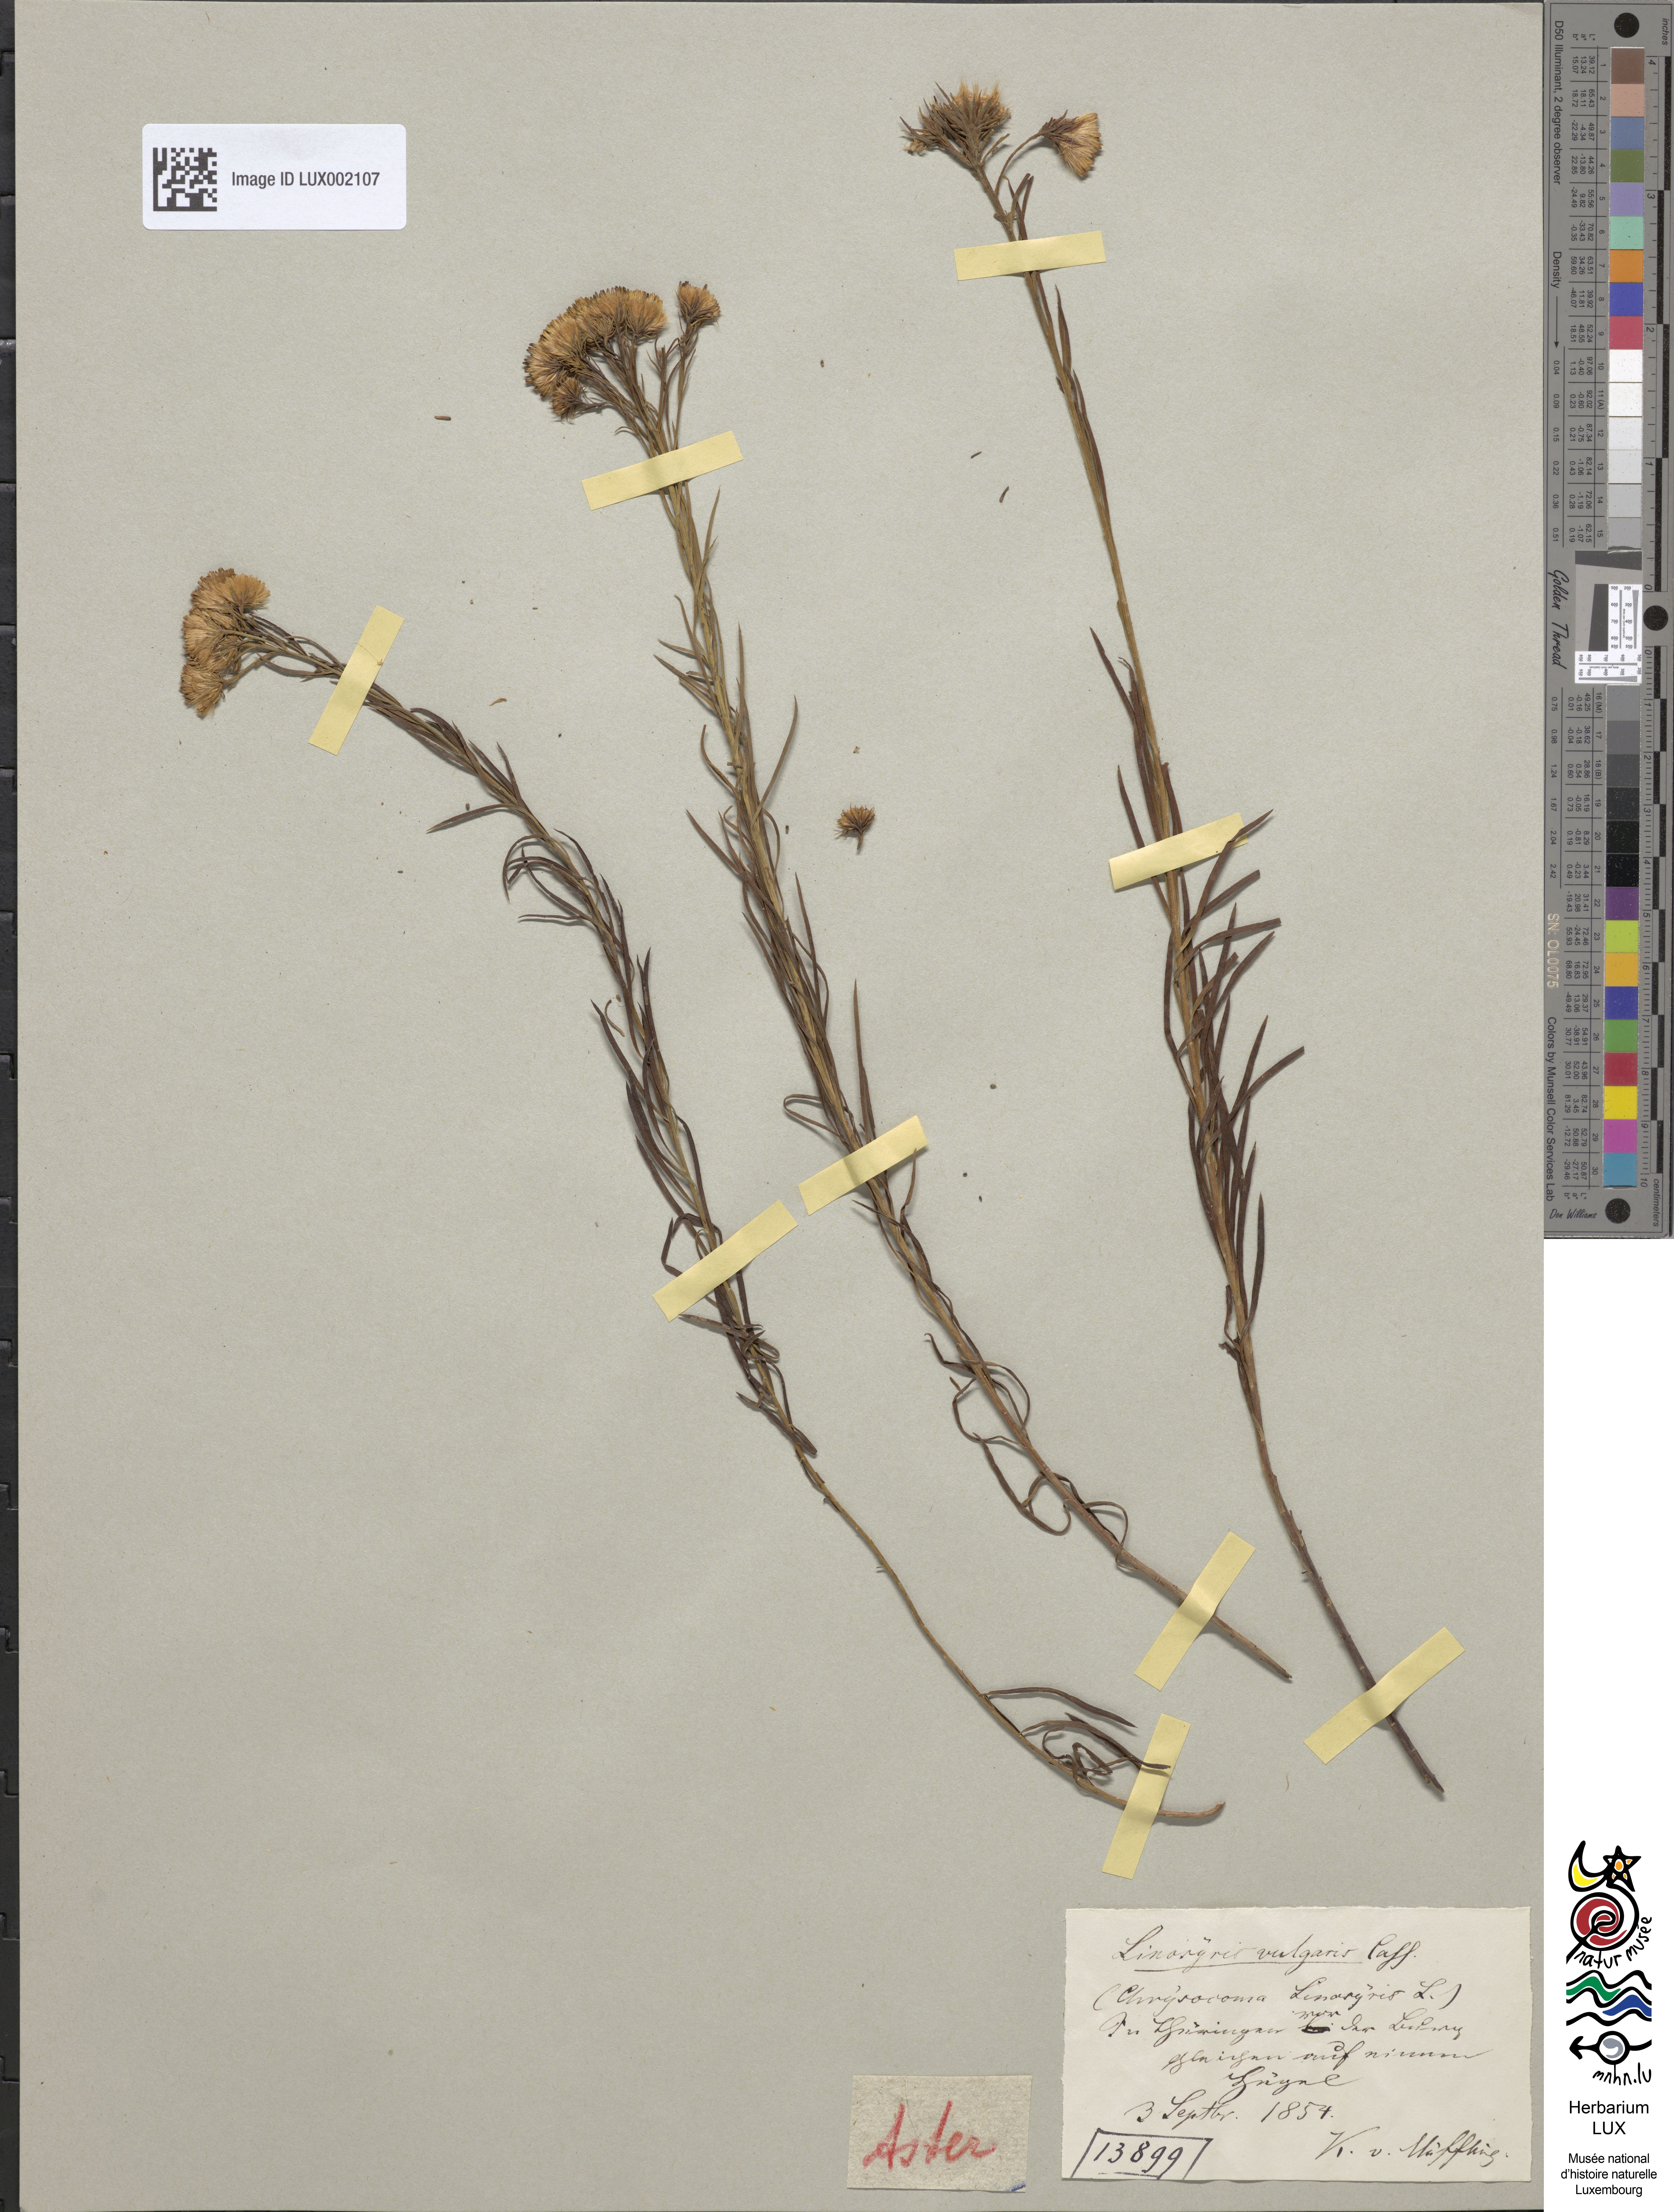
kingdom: Plantae
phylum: Tracheophyta
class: Magnoliopsida
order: Asterales
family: Asteraceae
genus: Galatella
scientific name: Galatella linosyris
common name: Goldilocks aster
